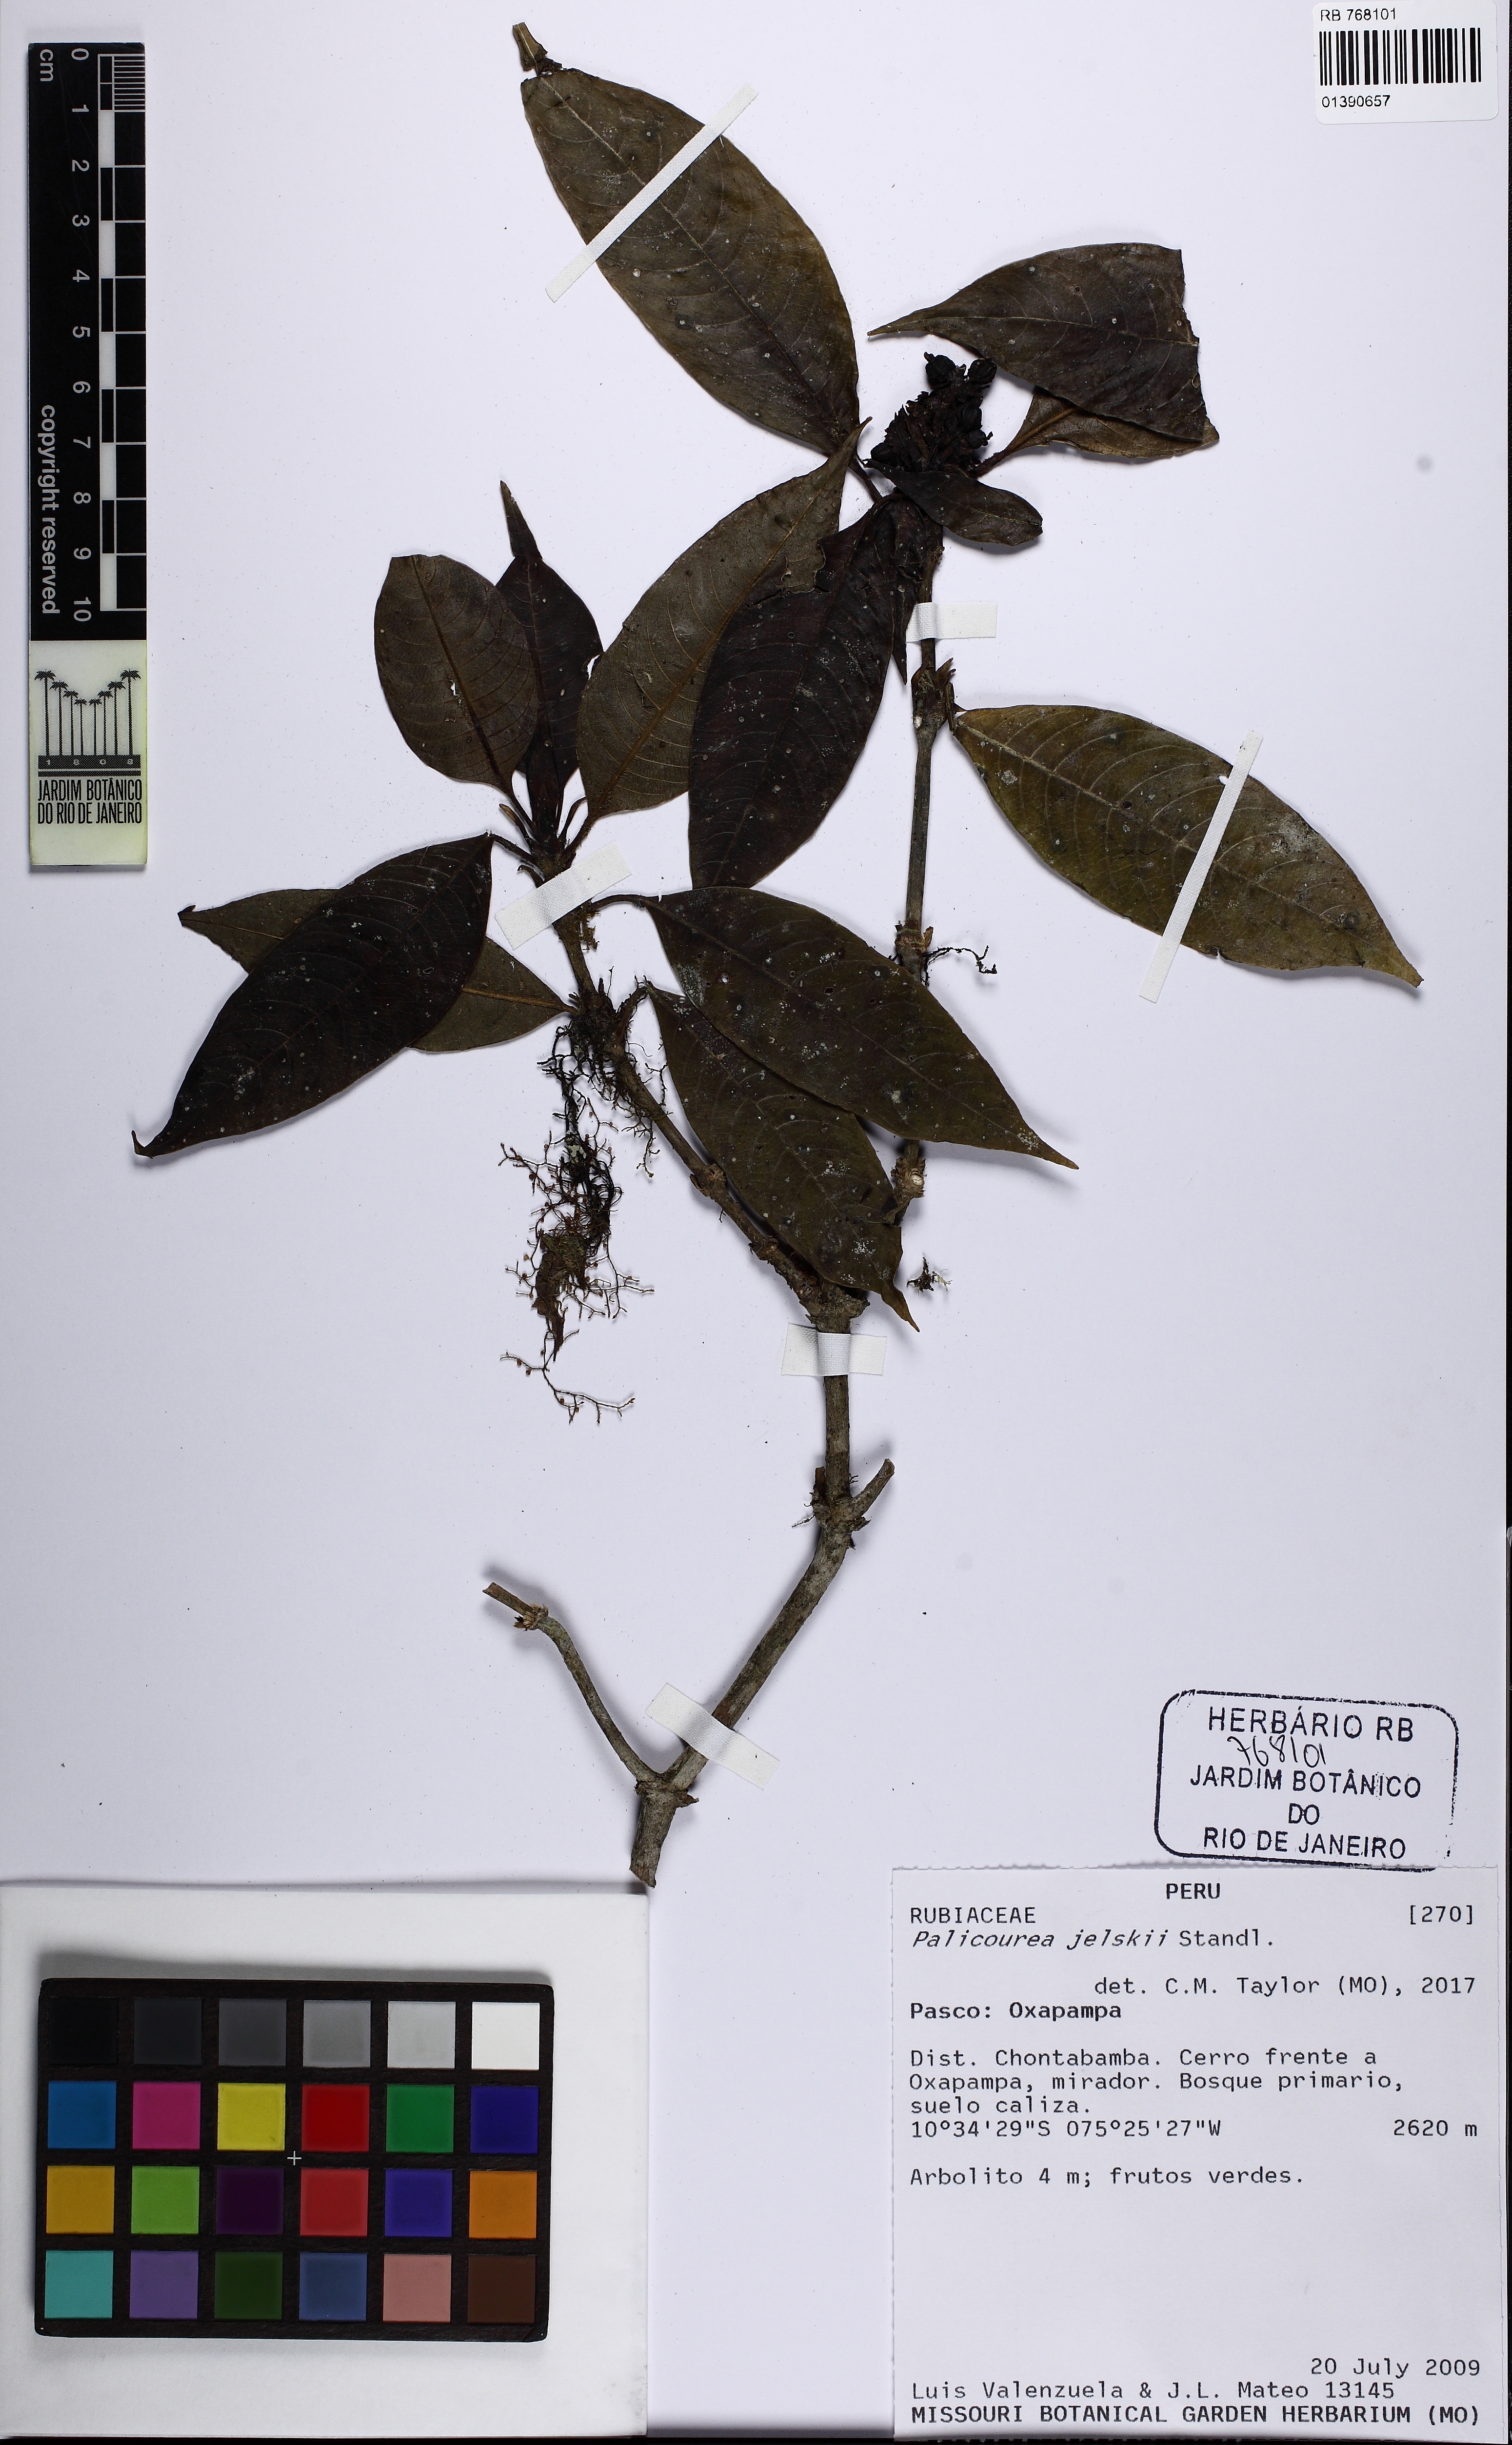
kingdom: Plantae
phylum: Tracheophyta
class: Magnoliopsida
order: Gentianales
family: Rubiaceae
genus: Palicourea
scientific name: Palicourea jelskii
